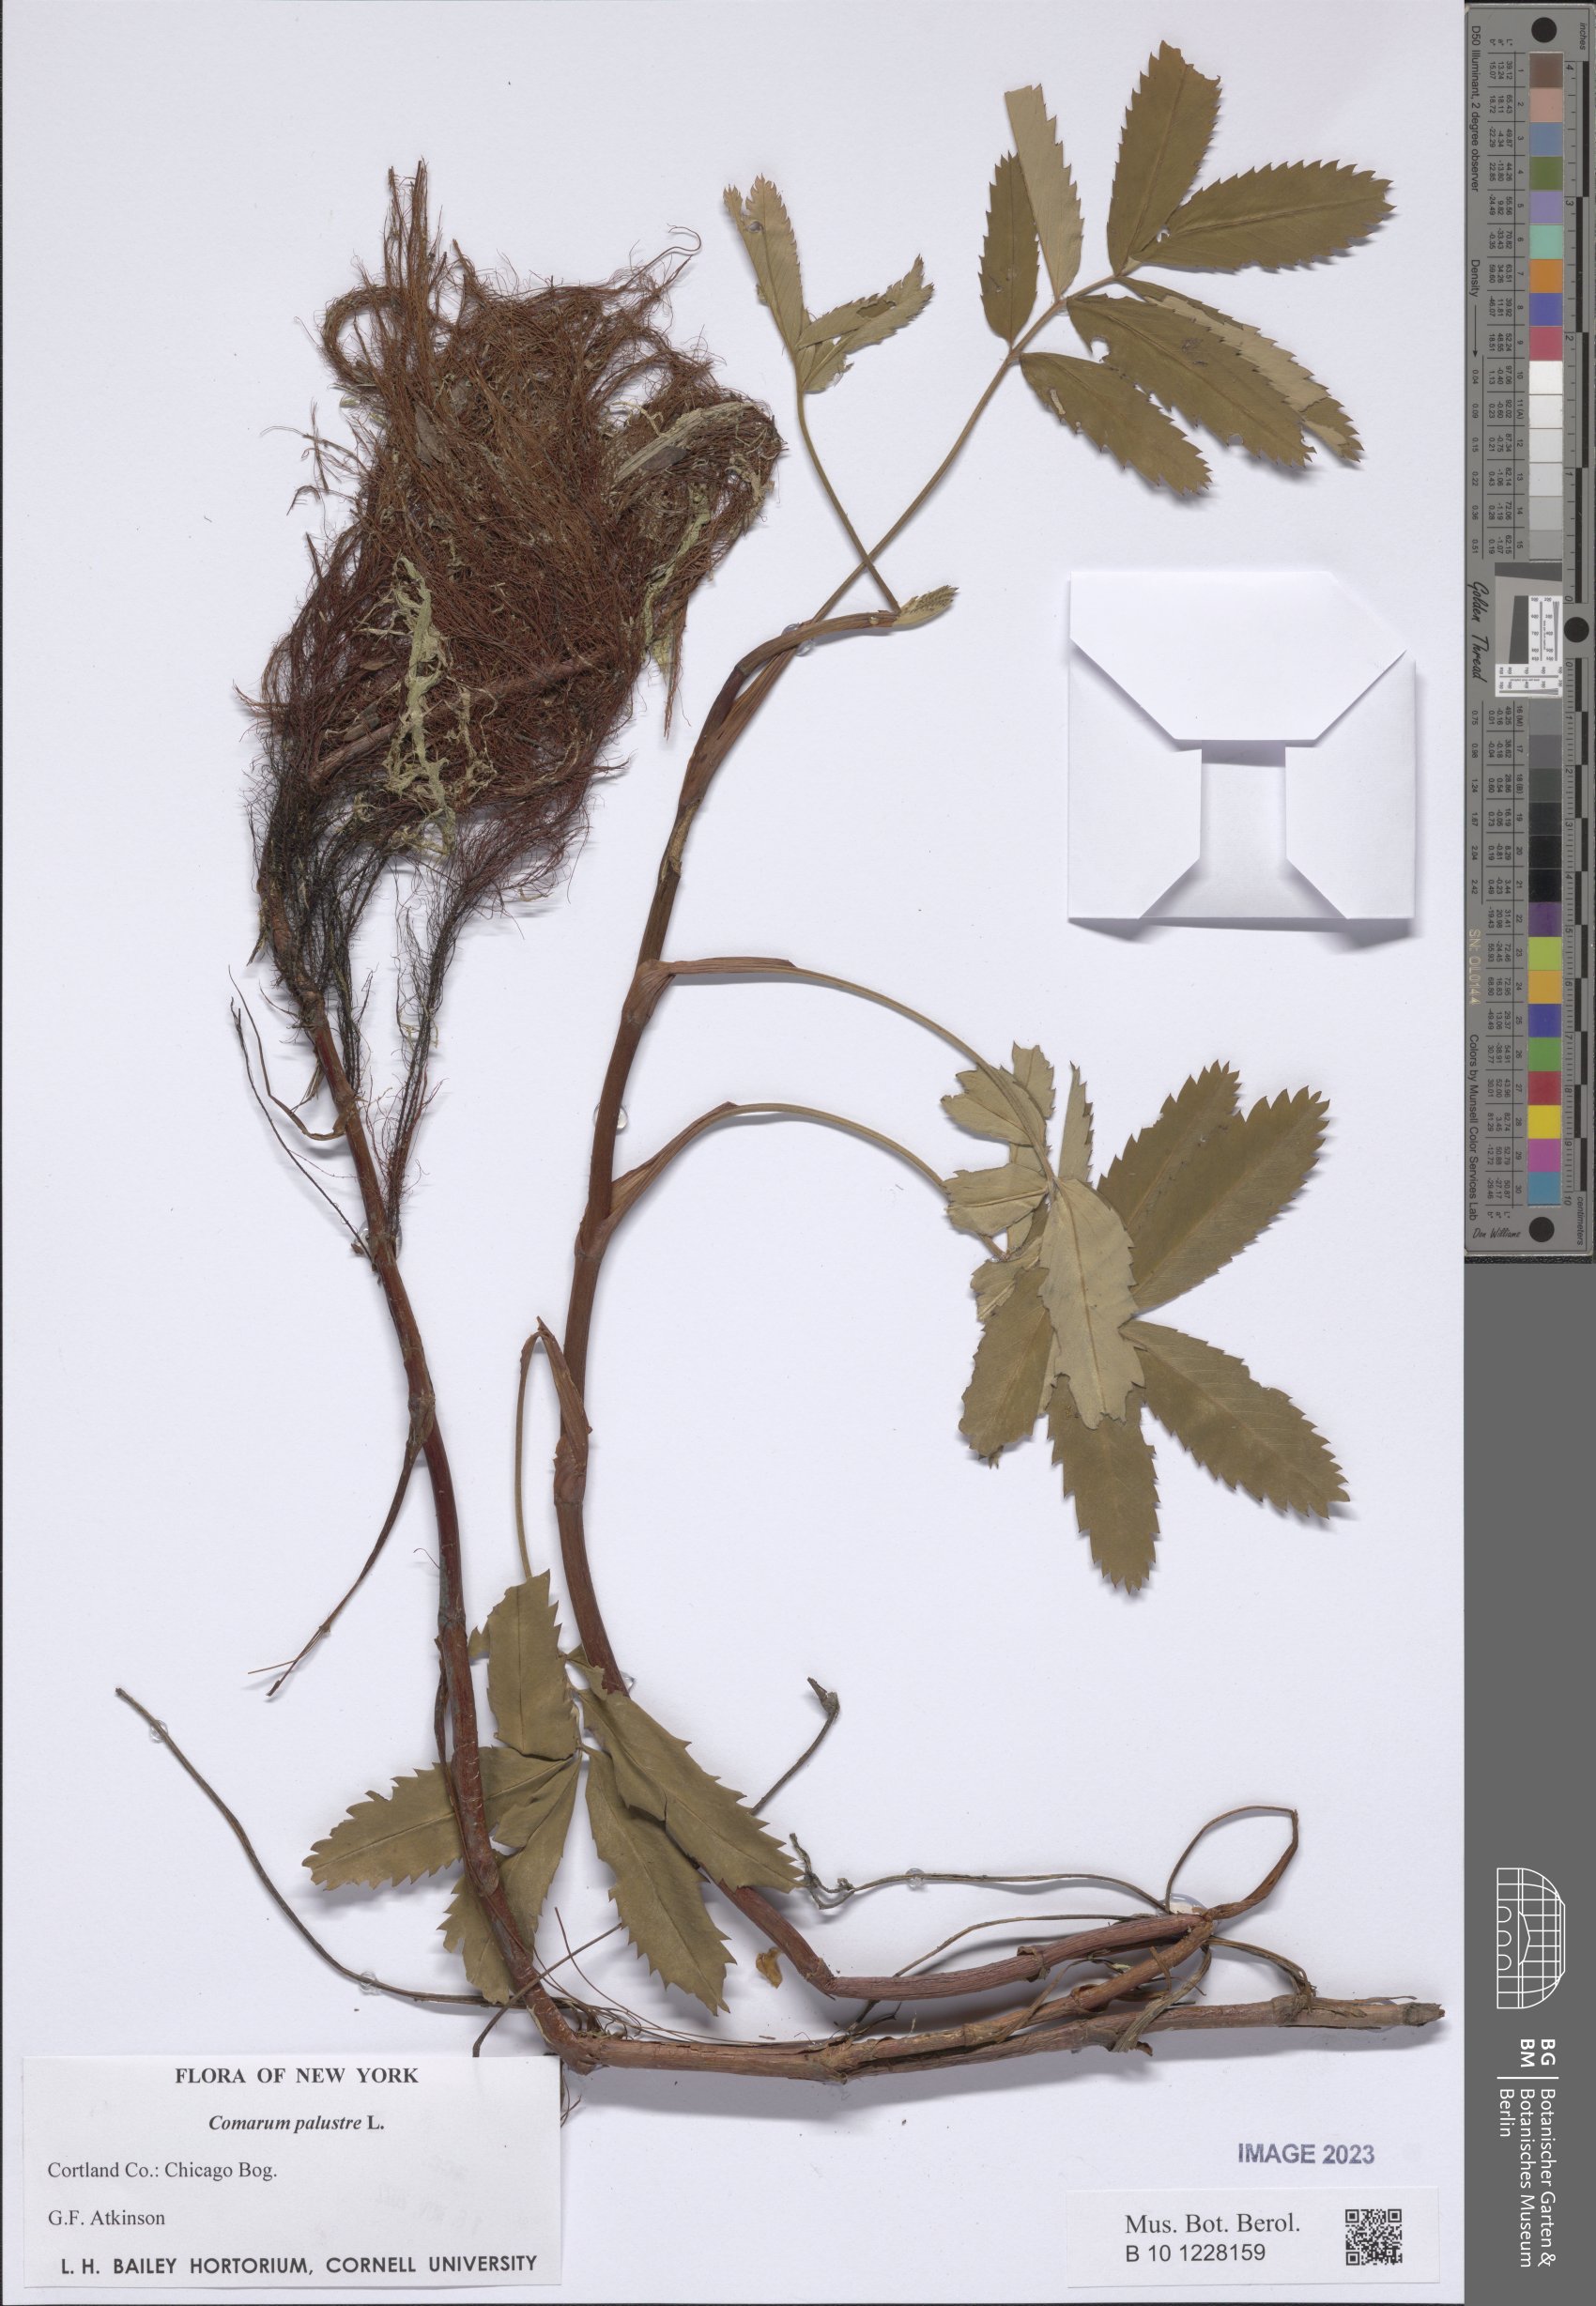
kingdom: Plantae
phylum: Tracheophyta
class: Magnoliopsida
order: Rosales
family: Rosaceae
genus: Comarum
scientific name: Comarum palustre
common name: Marsh cinquefoil
